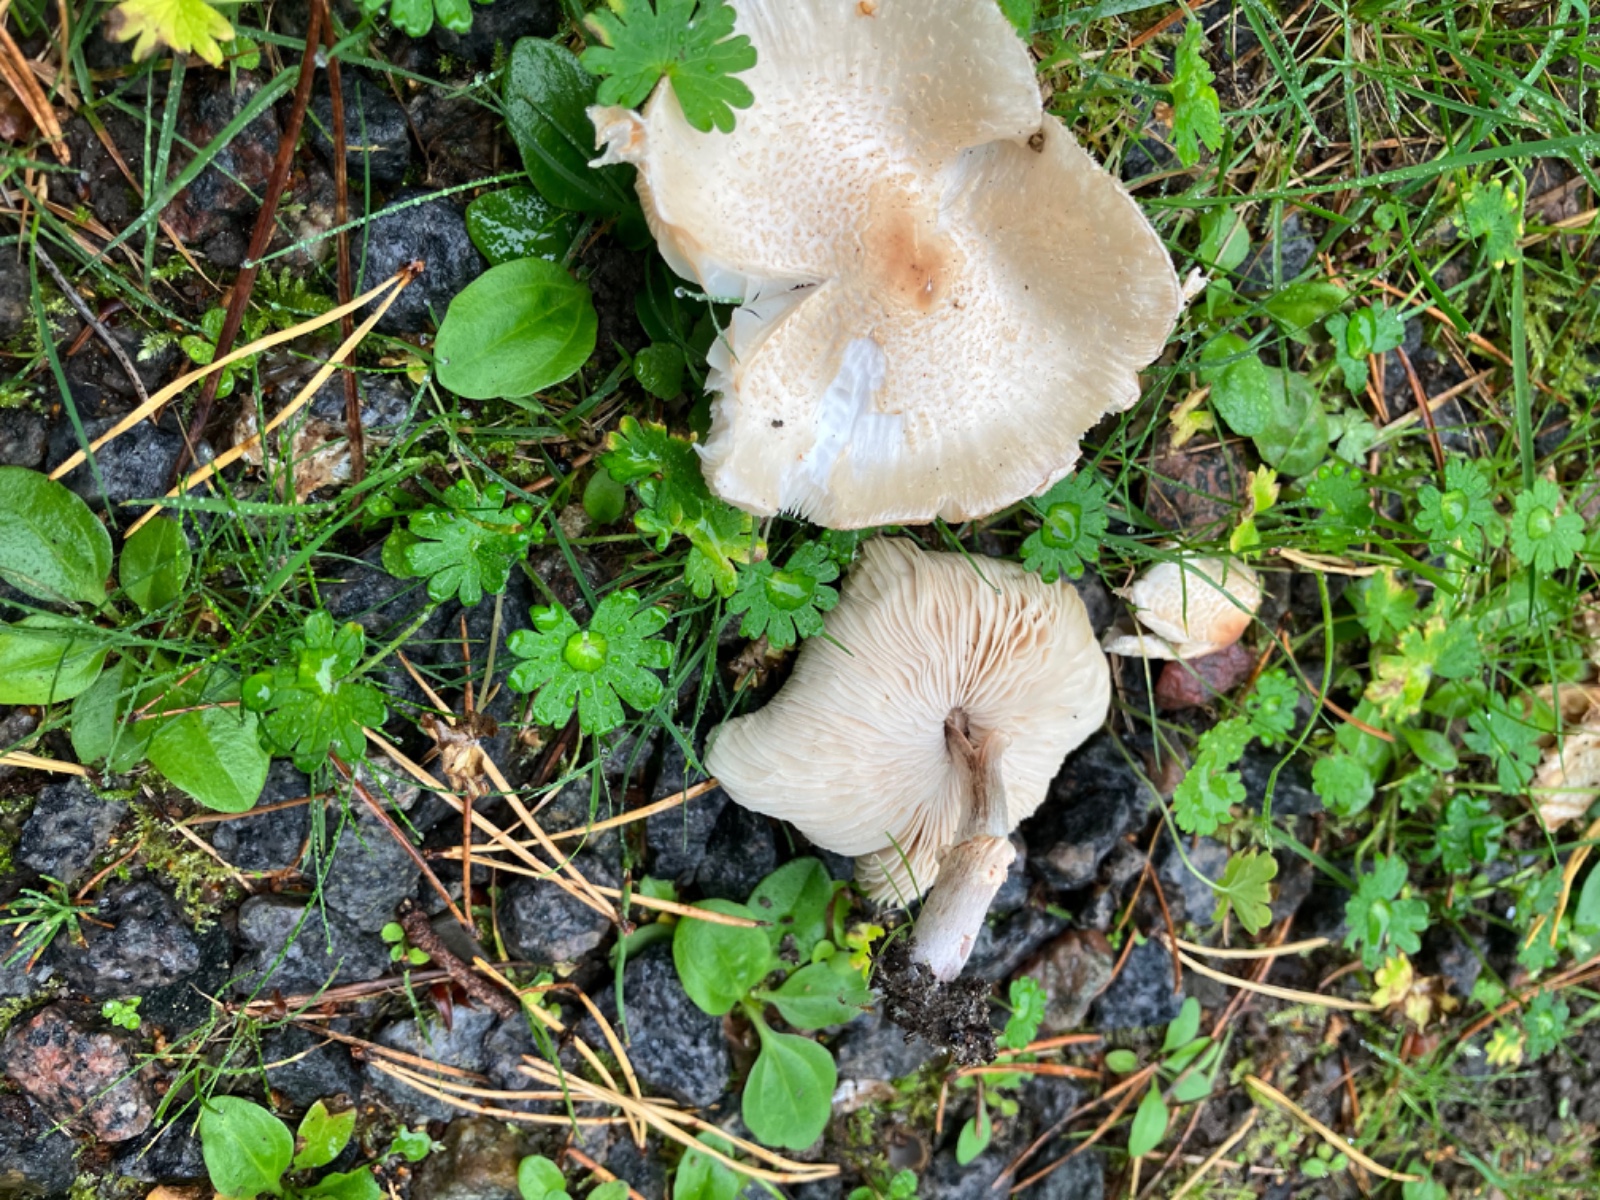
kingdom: Fungi
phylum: Basidiomycota
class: Agaricomycetes
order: Agaricales
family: Agaricaceae
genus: Lepiota
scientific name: Lepiota cristata
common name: stinkende parasolhat
